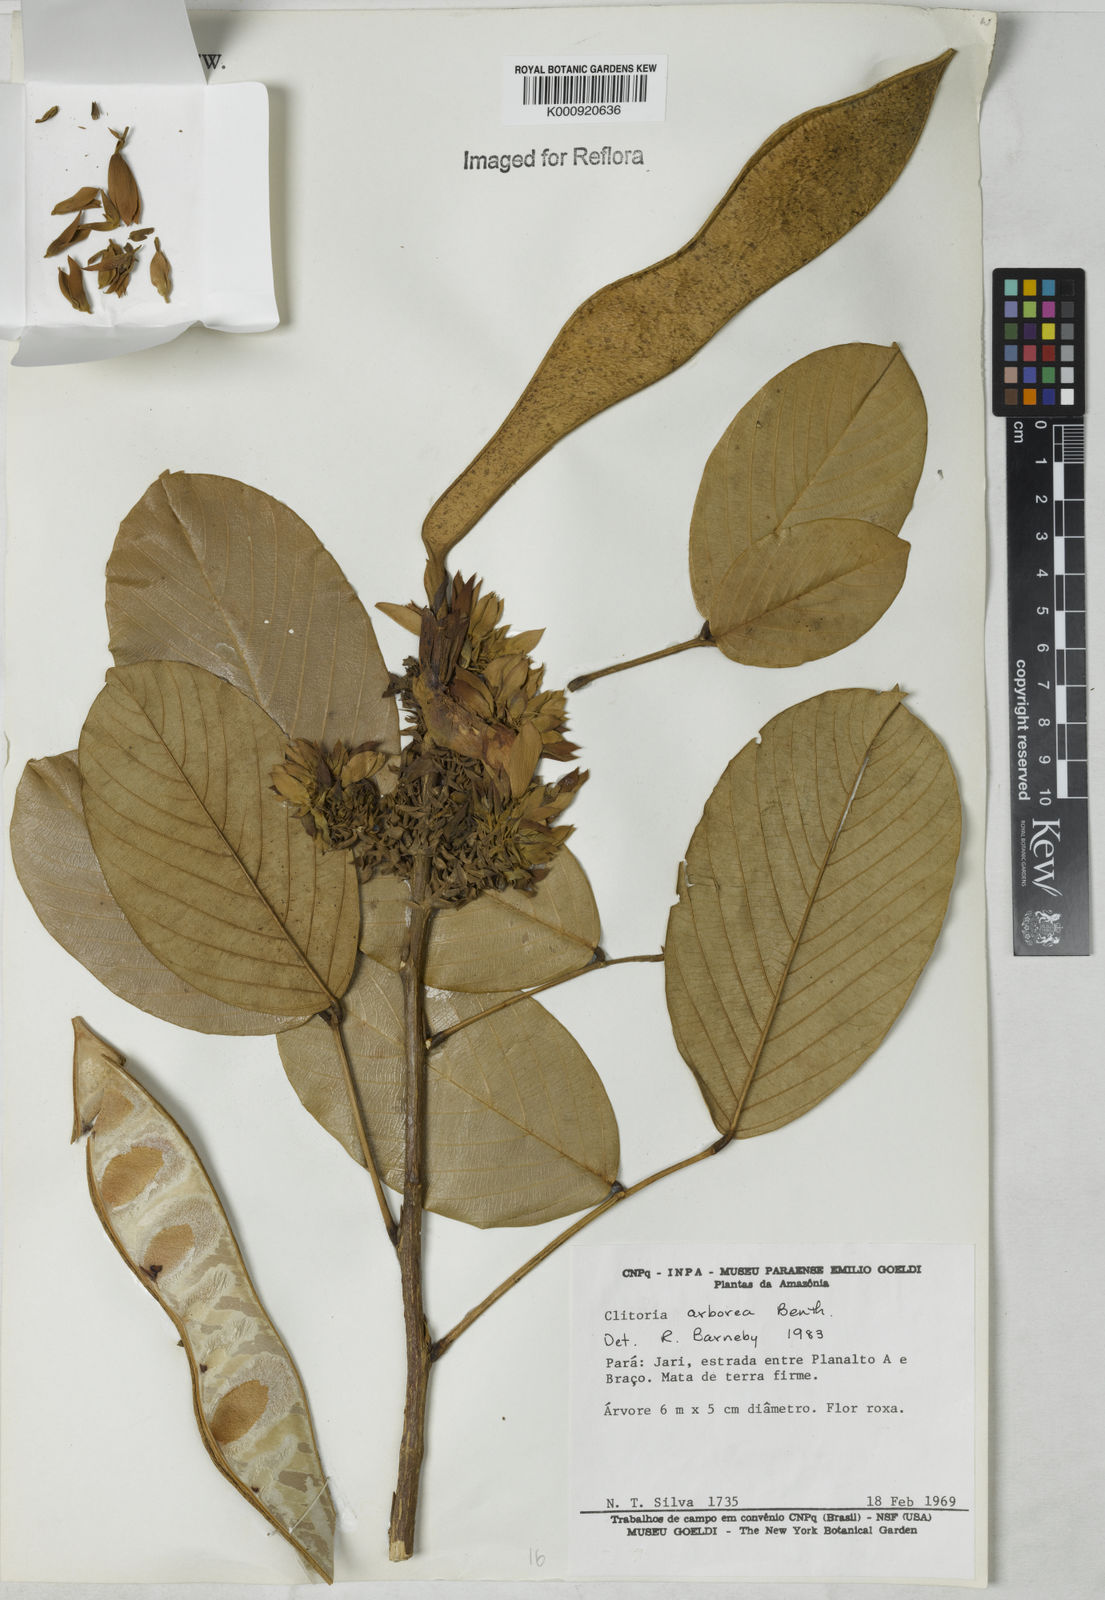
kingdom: Plantae
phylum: Tracheophyta
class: Magnoliopsida
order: Fabales
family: Fabaceae
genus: Clitoria
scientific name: Clitoria arborea
